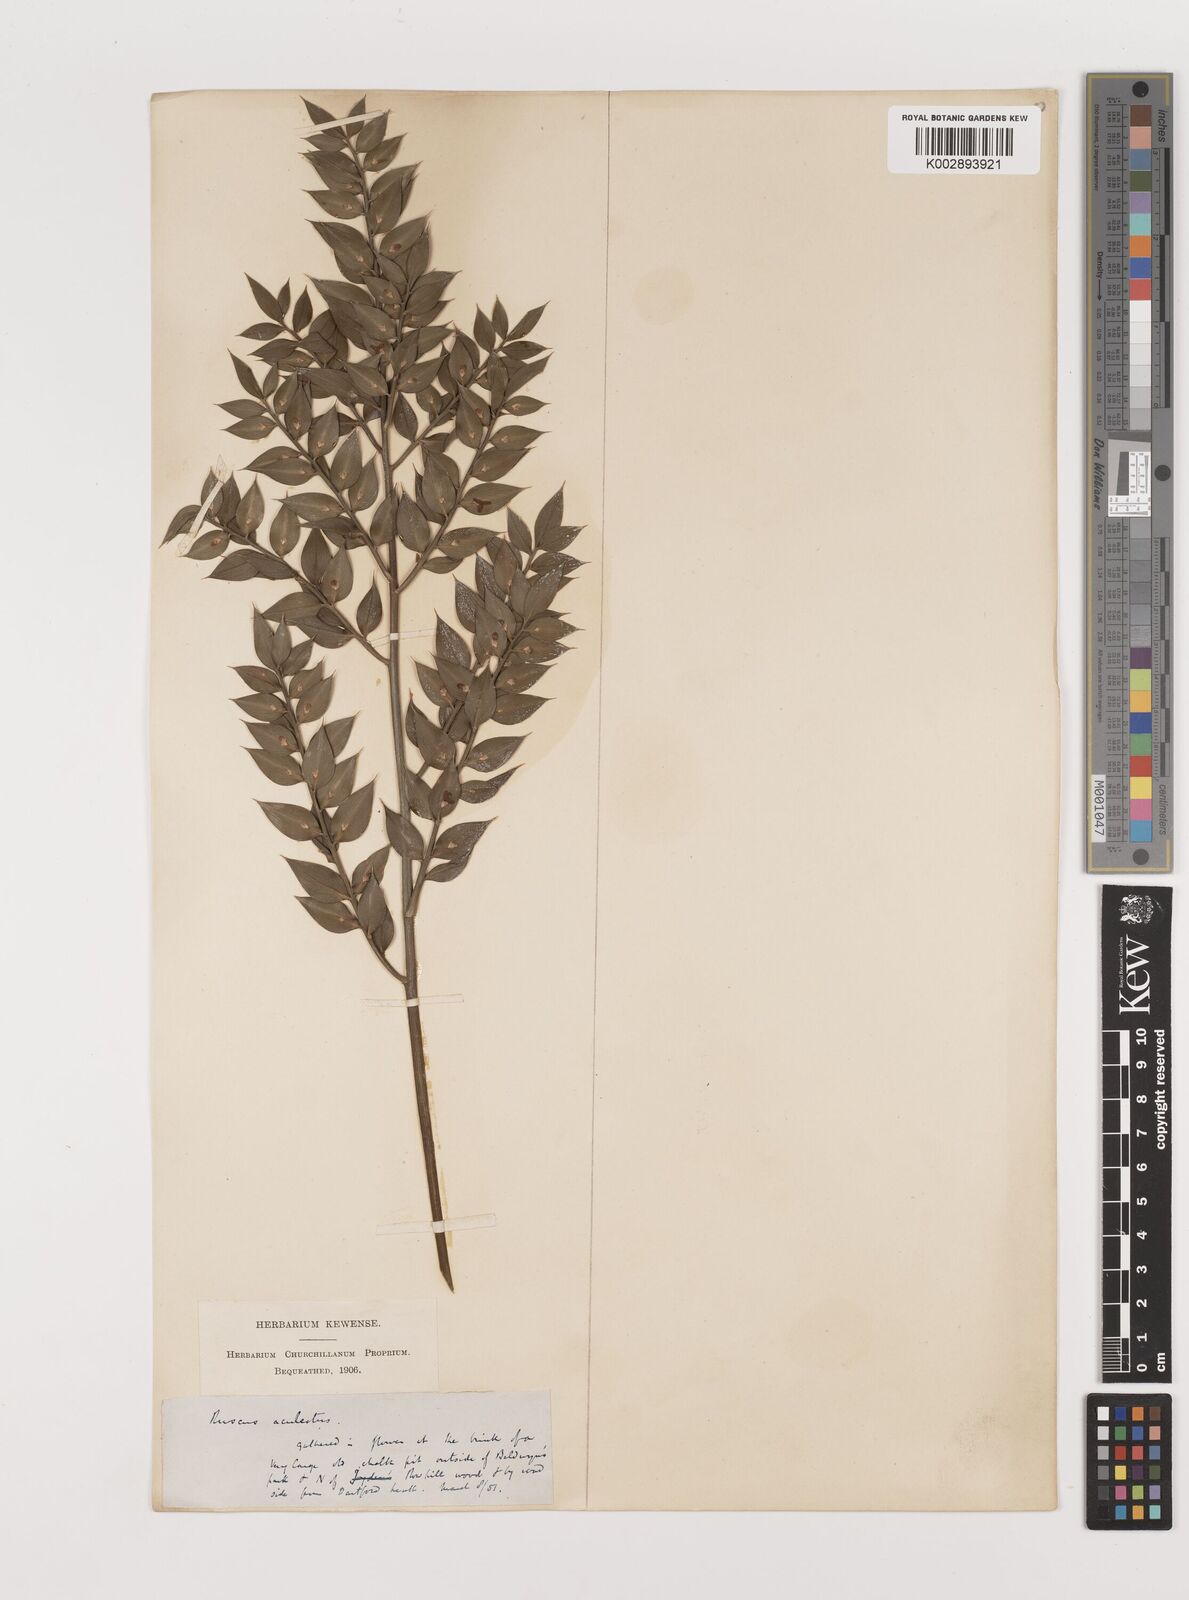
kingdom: Plantae
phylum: Tracheophyta
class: Liliopsida
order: Asparagales
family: Asparagaceae
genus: Ruscus
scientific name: Ruscus aculeatus
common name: Butcher's-broom
